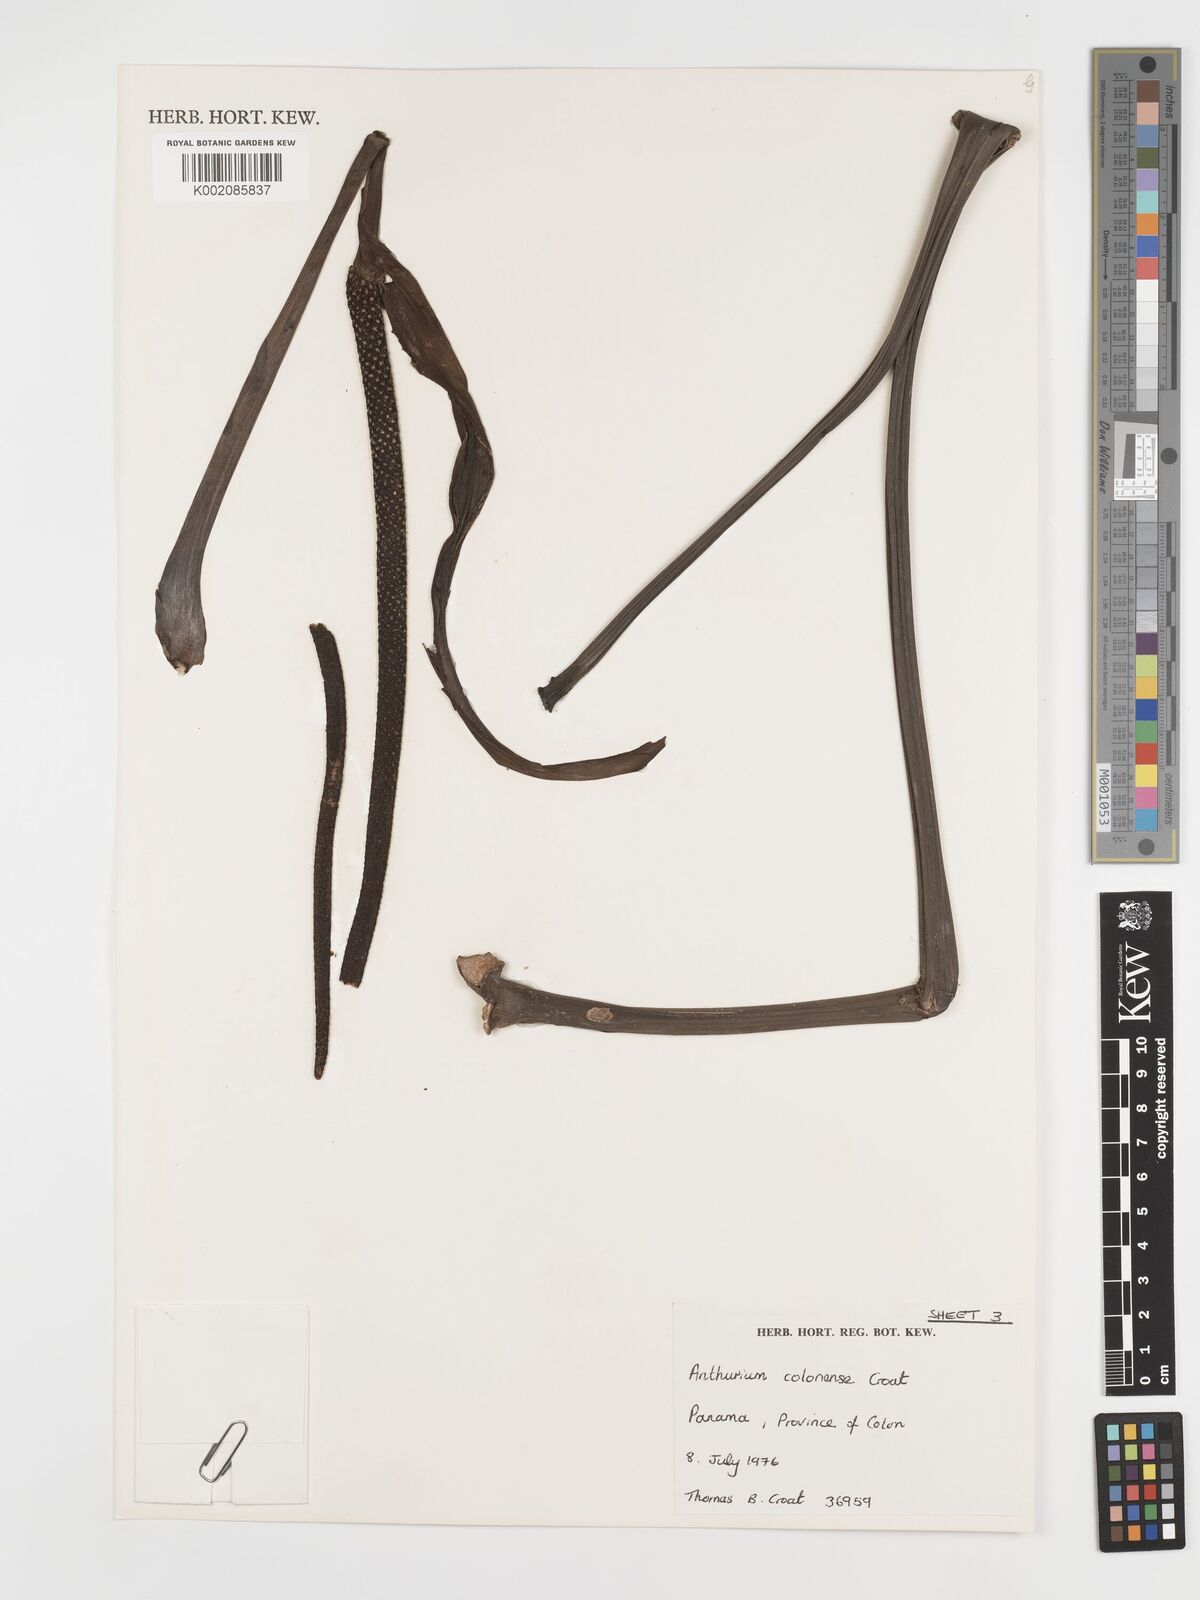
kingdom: Plantae
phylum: Tracheophyta
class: Liliopsida
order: Alismatales
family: Araceae
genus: Anthurium
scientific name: Anthurium colonense
